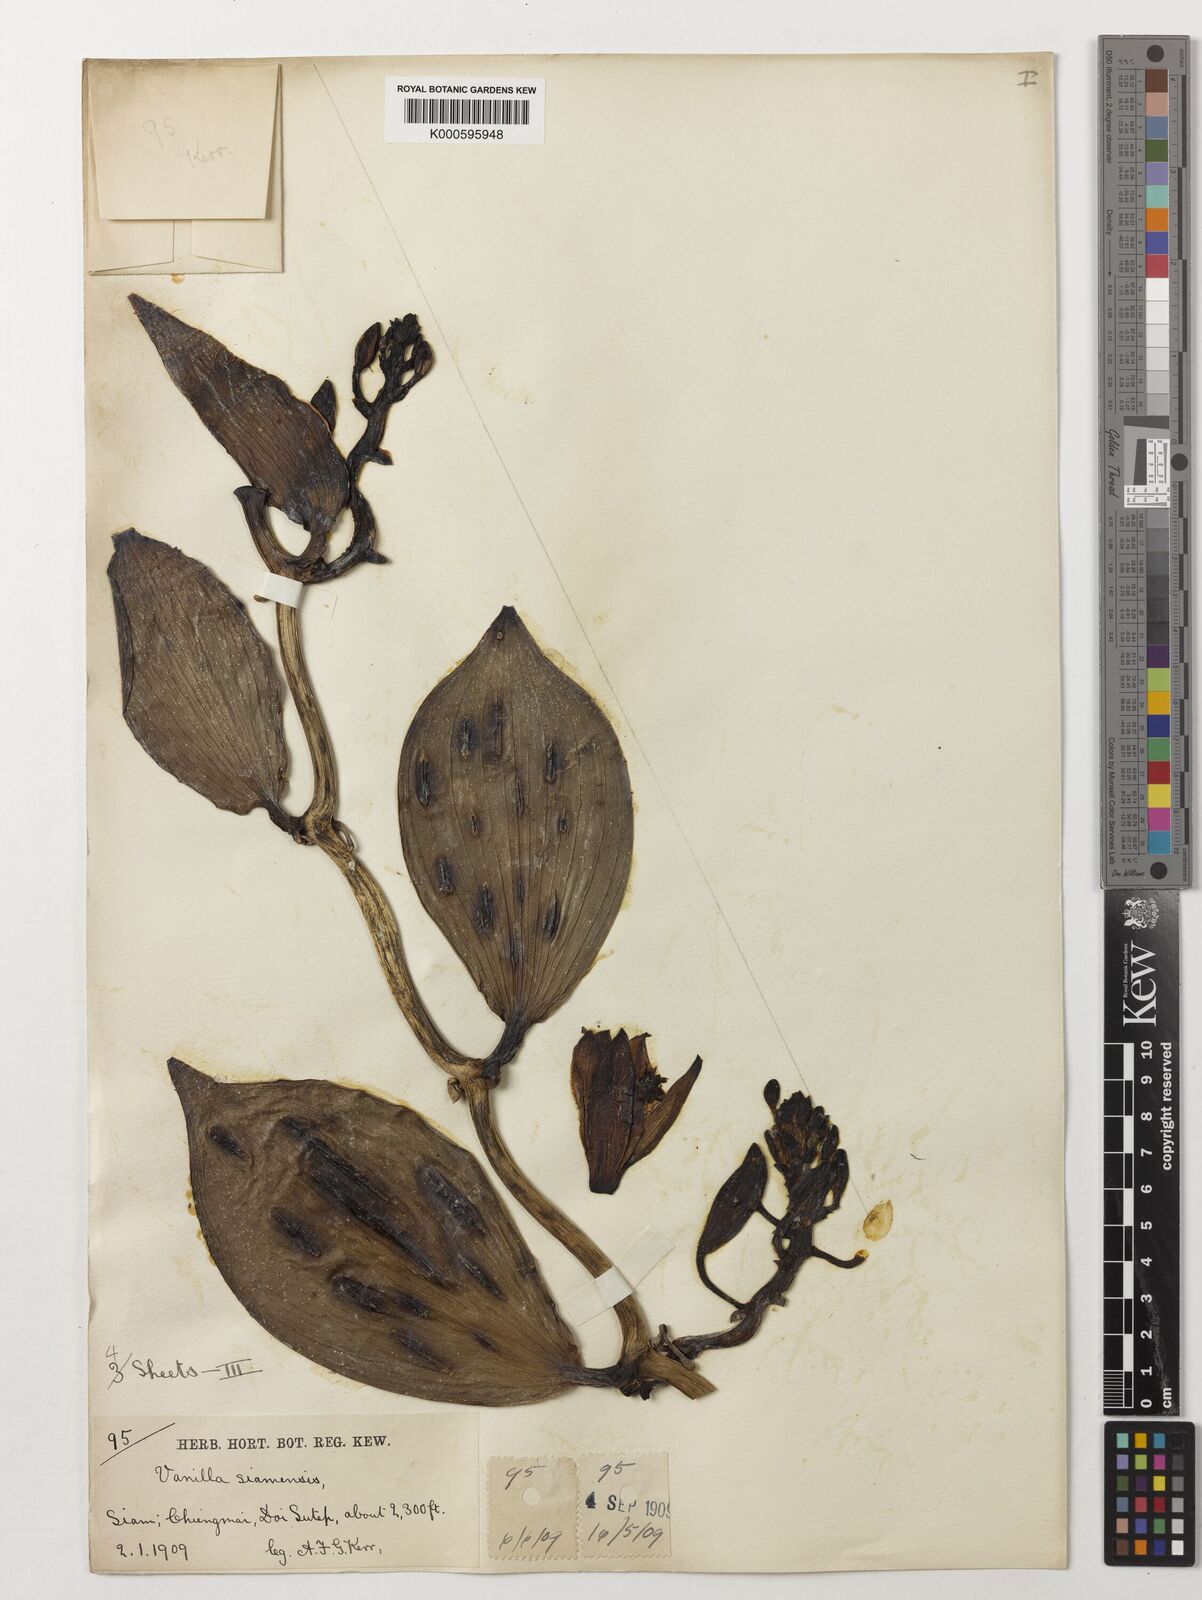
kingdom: Plantae
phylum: Tracheophyta
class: Liliopsida
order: Asparagales
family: Orchidaceae
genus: Vanilla
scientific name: Vanilla siamensis
